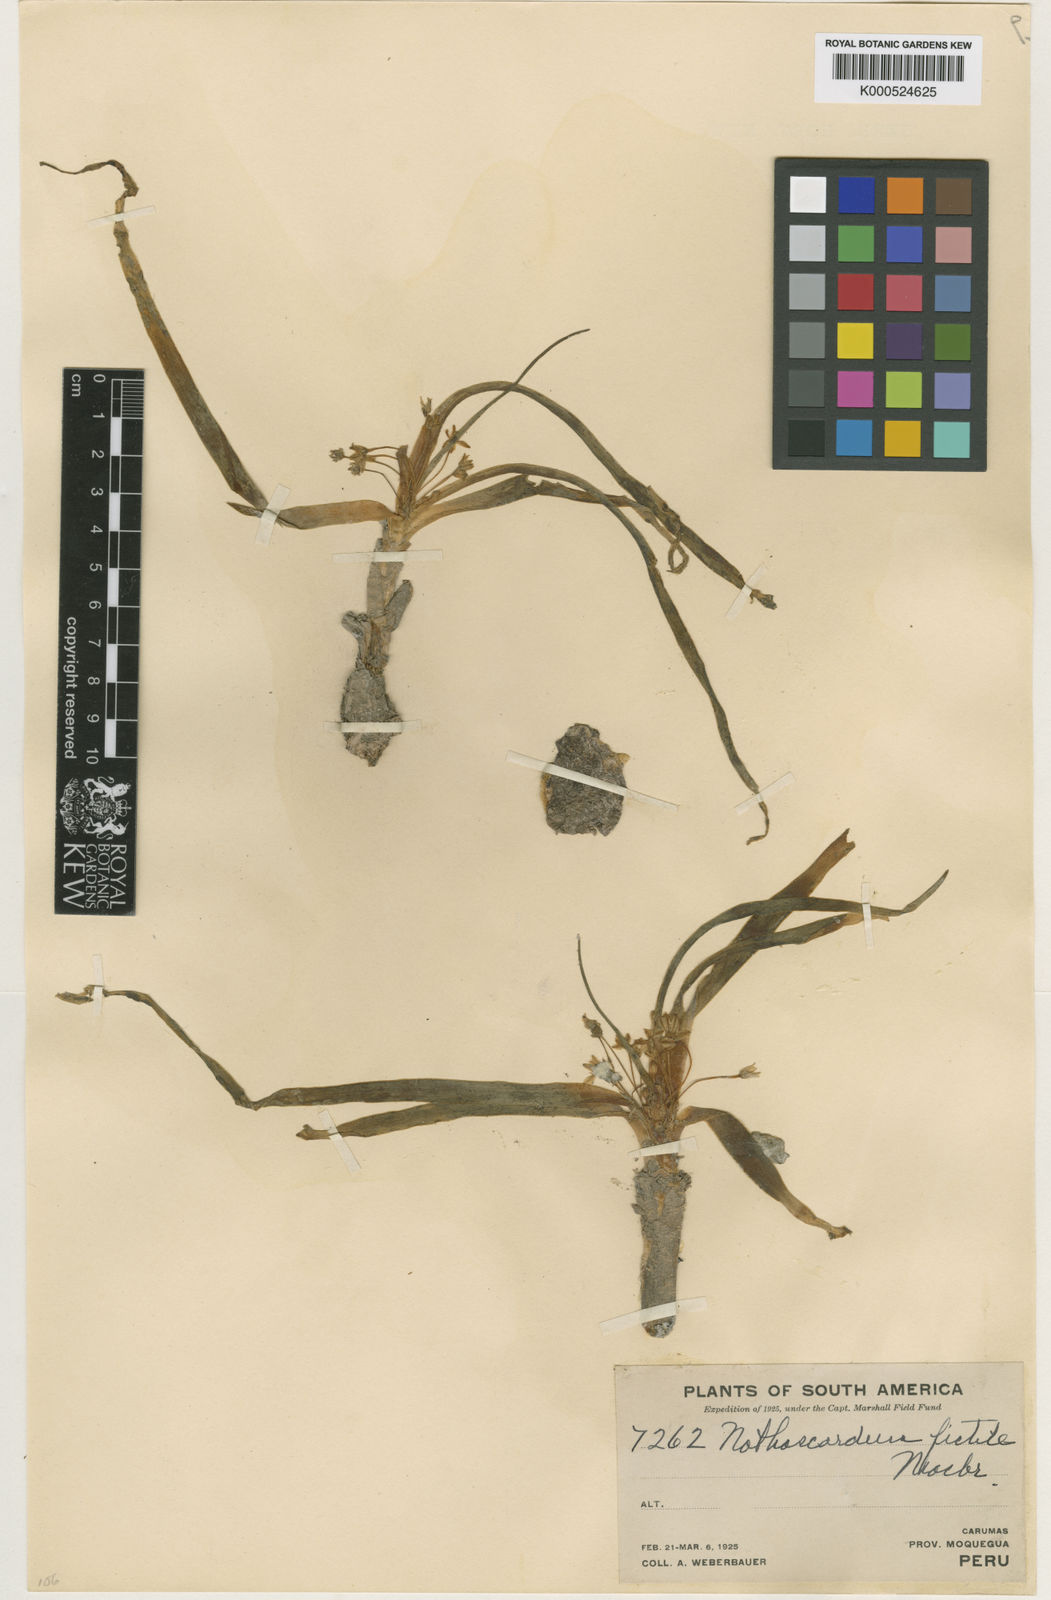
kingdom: Plantae
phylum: Tracheophyta
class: Liliopsida
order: Asparagales
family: Asparagaceae
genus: Oziroe
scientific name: Oziroe acaulis
